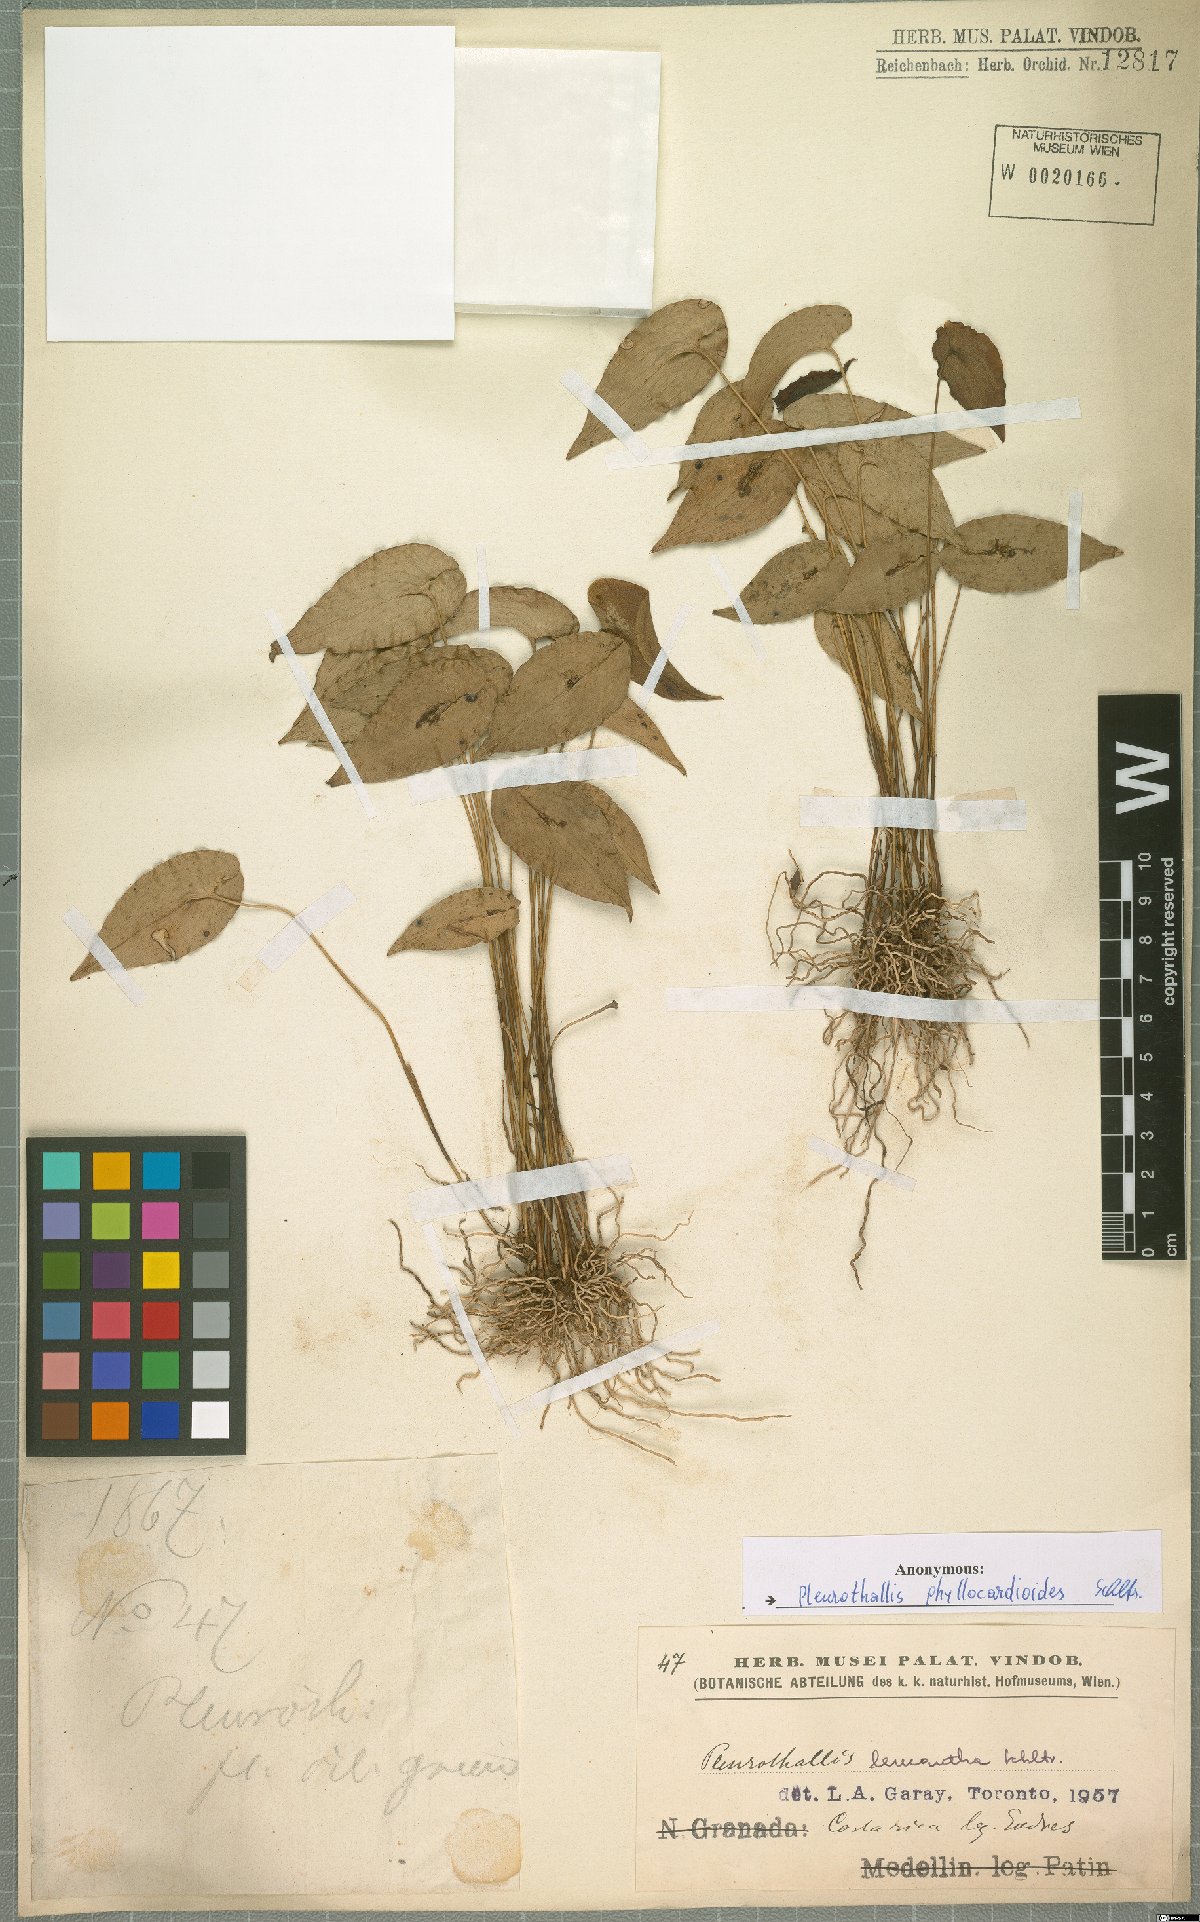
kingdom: Plantae
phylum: Tracheophyta
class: Liliopsida
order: Asparagales
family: Orchidaceae
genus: Pleurothallis
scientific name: Pleurothallis phyllocardioides
